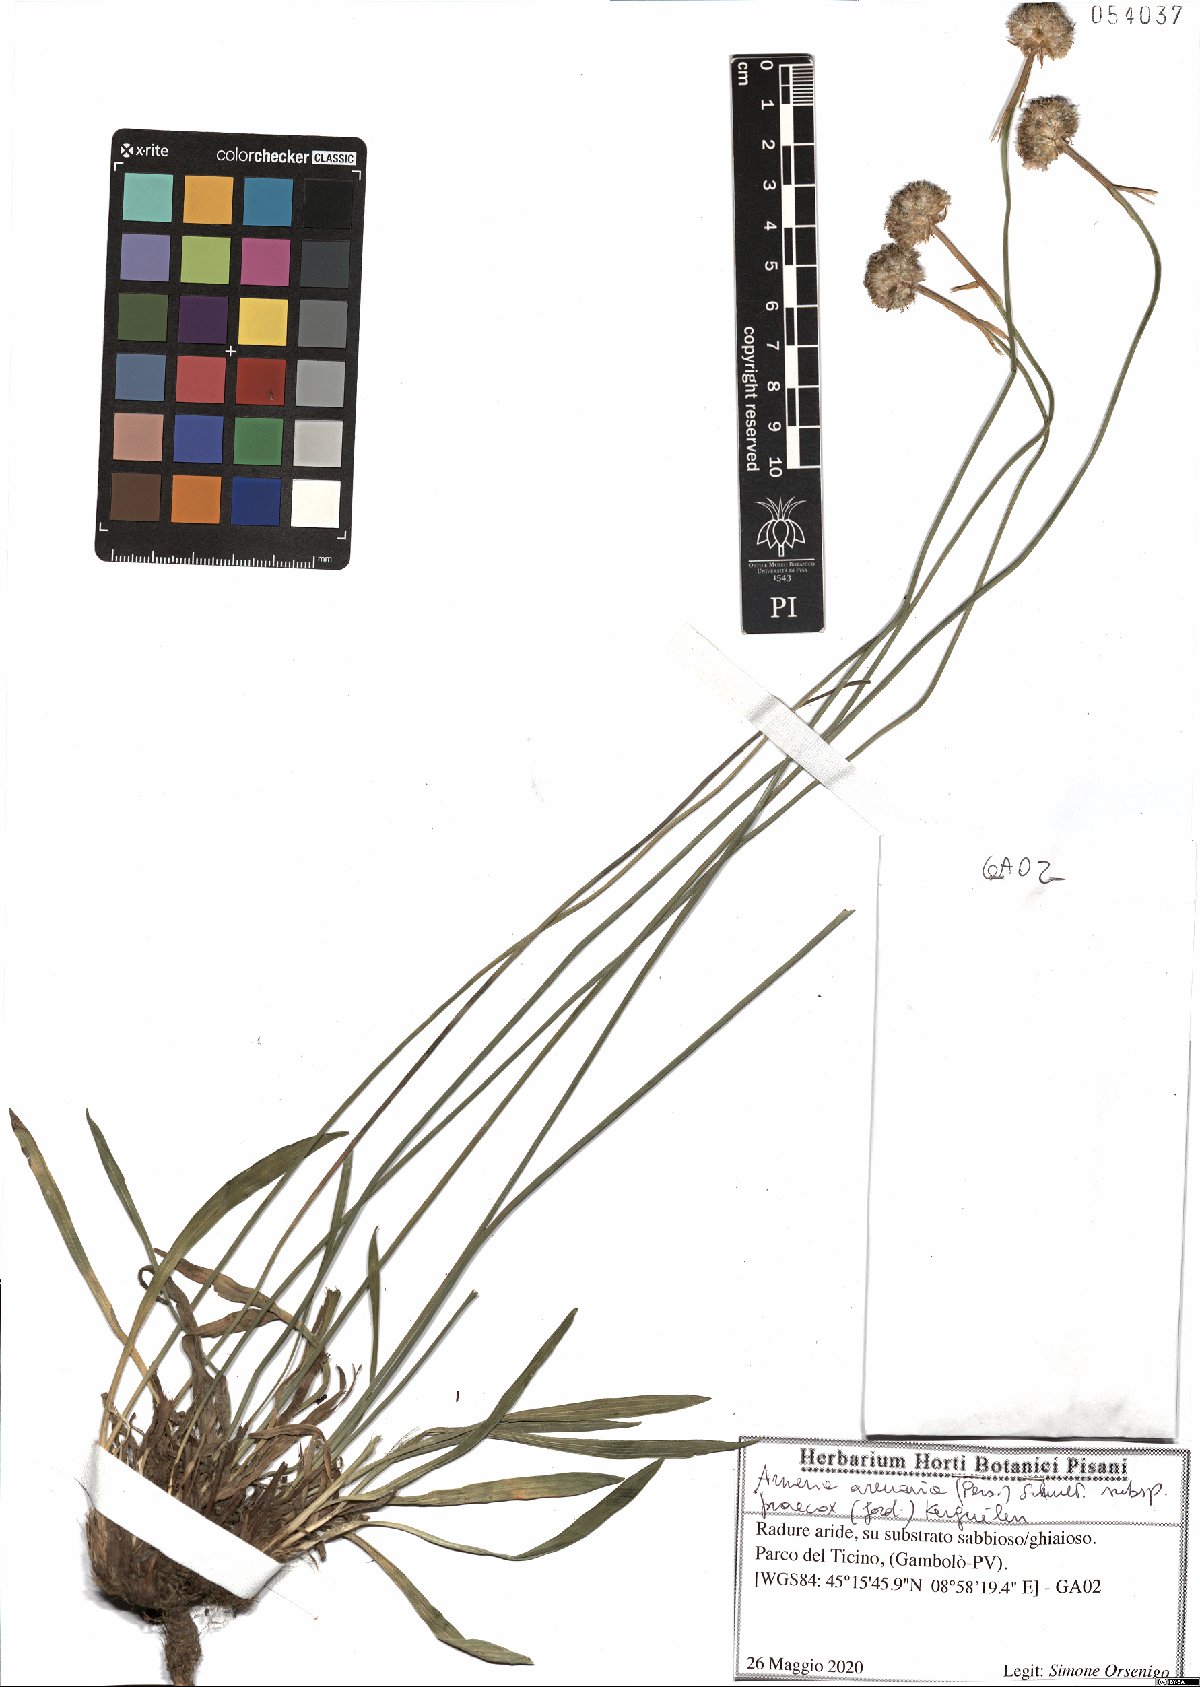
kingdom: Plantae
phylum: Tracheophyta
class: Magnoliopsida
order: Caryophyllales
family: Plumbaginaceae
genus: Armeria
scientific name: Armeria arenaria
